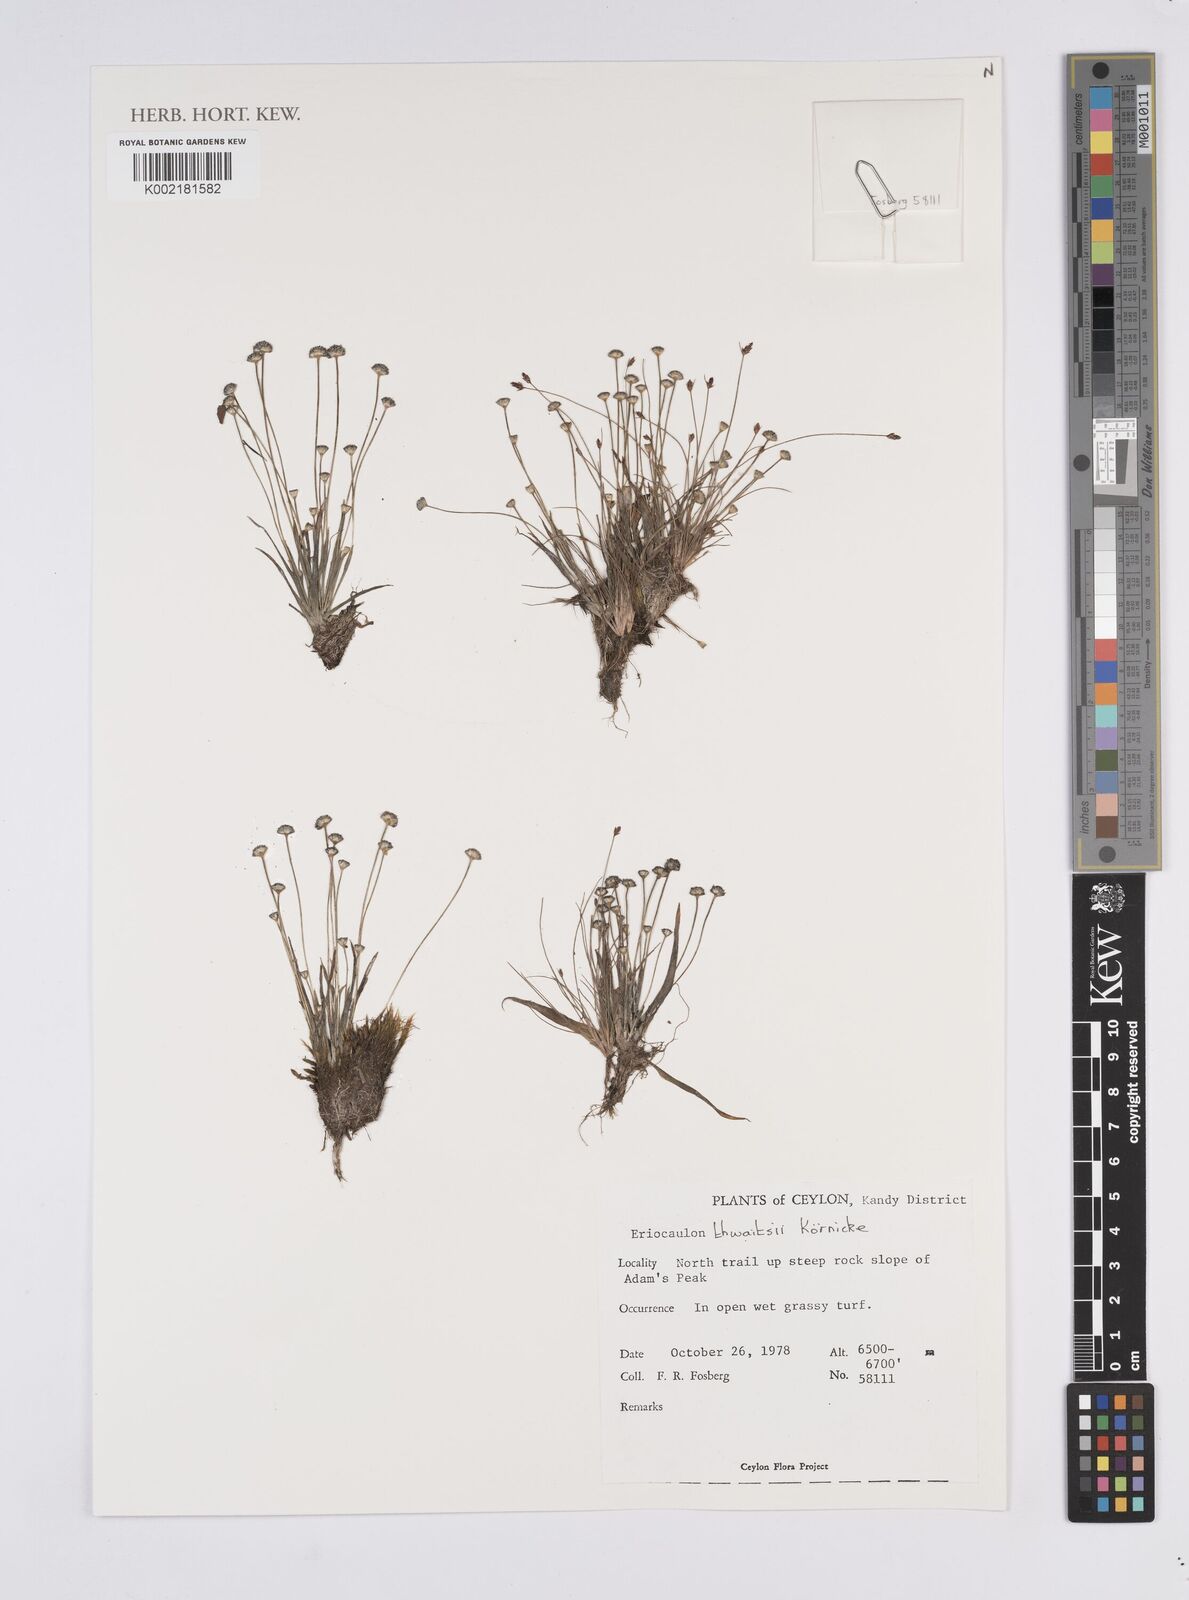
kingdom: Plantae
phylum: Tracheophyta
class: Liliopsida
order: Poales
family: Eriocaulaceae
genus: Eriocaulon
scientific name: Eriocaulon thwaitesii
